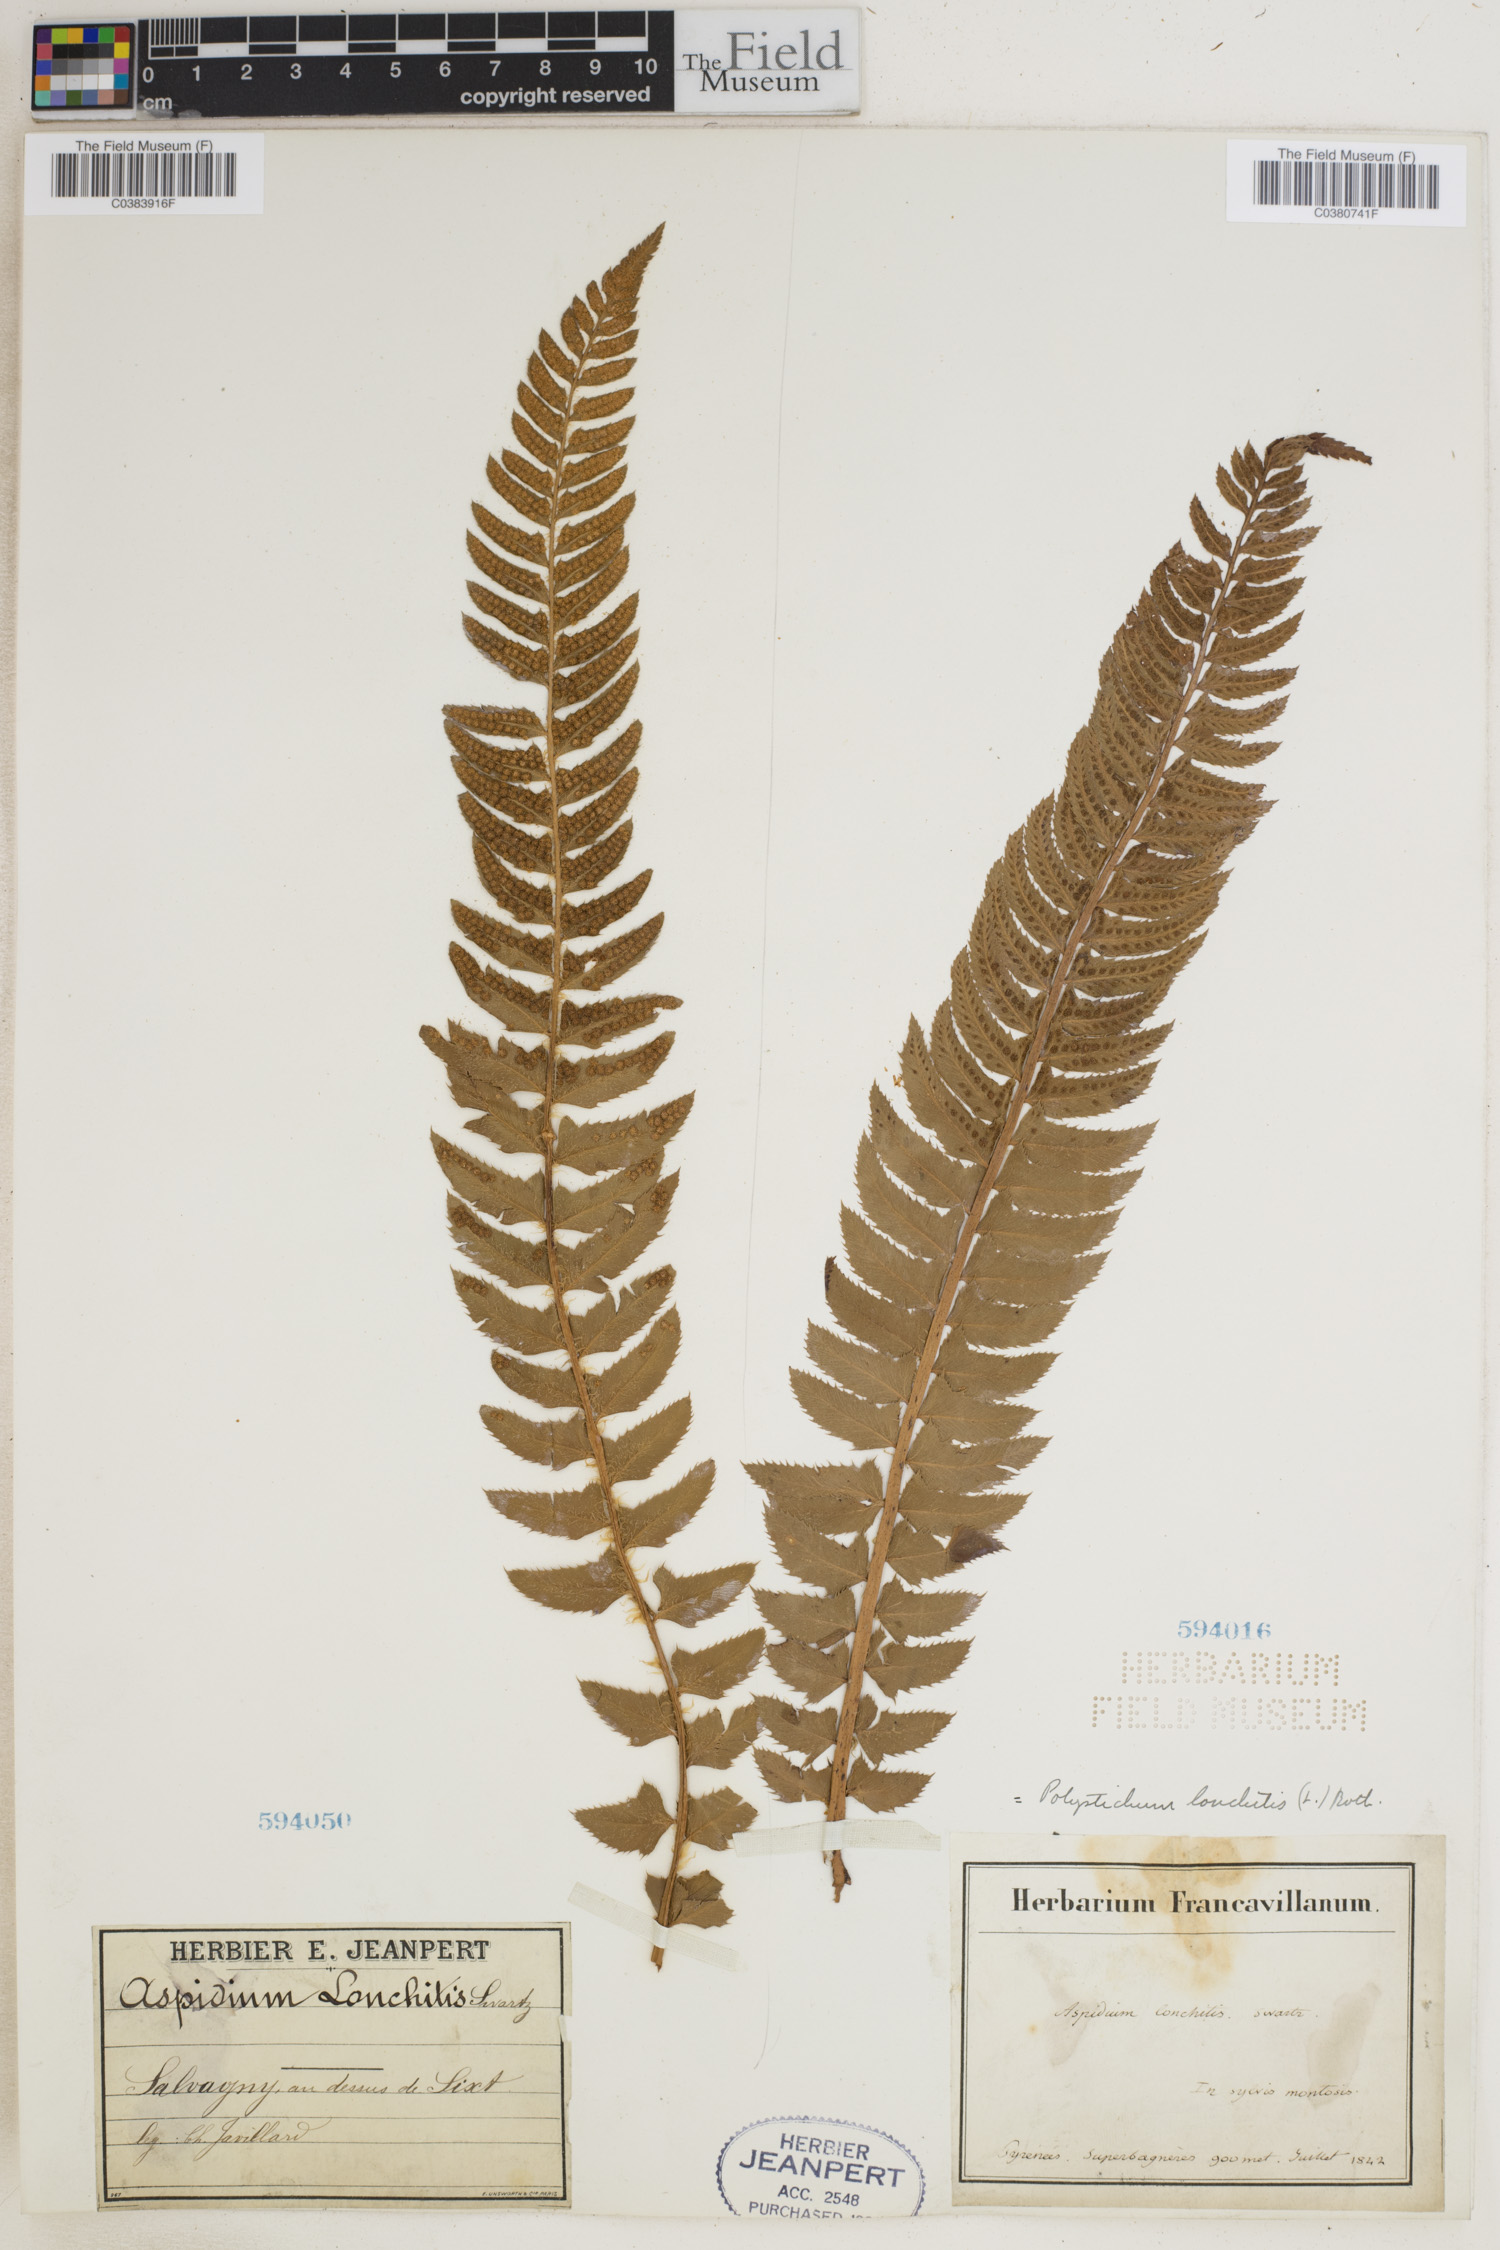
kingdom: Plantae
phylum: Tracheophyta
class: Polypodiopsida
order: Polypodiales
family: Dryopteridaceae
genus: Polystichum
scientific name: Polystichum lonchitis
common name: Holly fern
